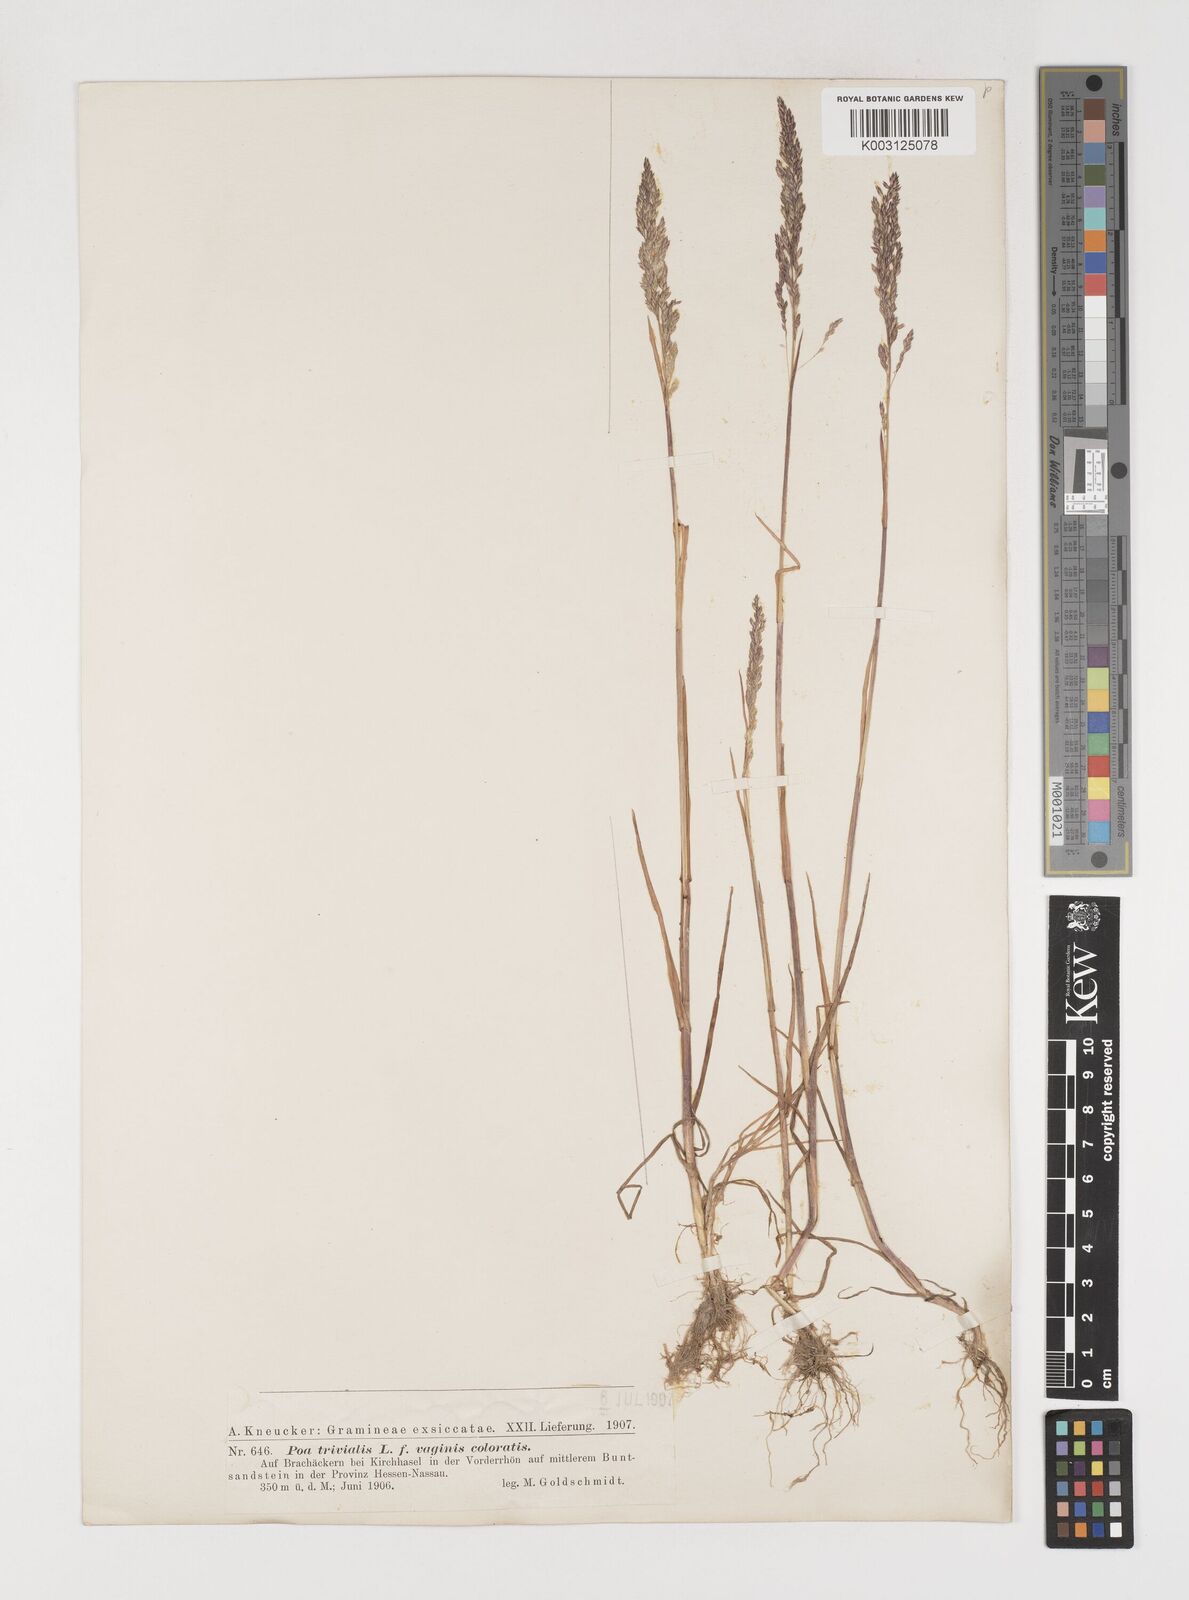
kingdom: Plantae
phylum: Tracheophyta
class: Liliopsida
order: Poales
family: Poaceae
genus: Poa
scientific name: Poa trivialis
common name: Rough bluegrass
